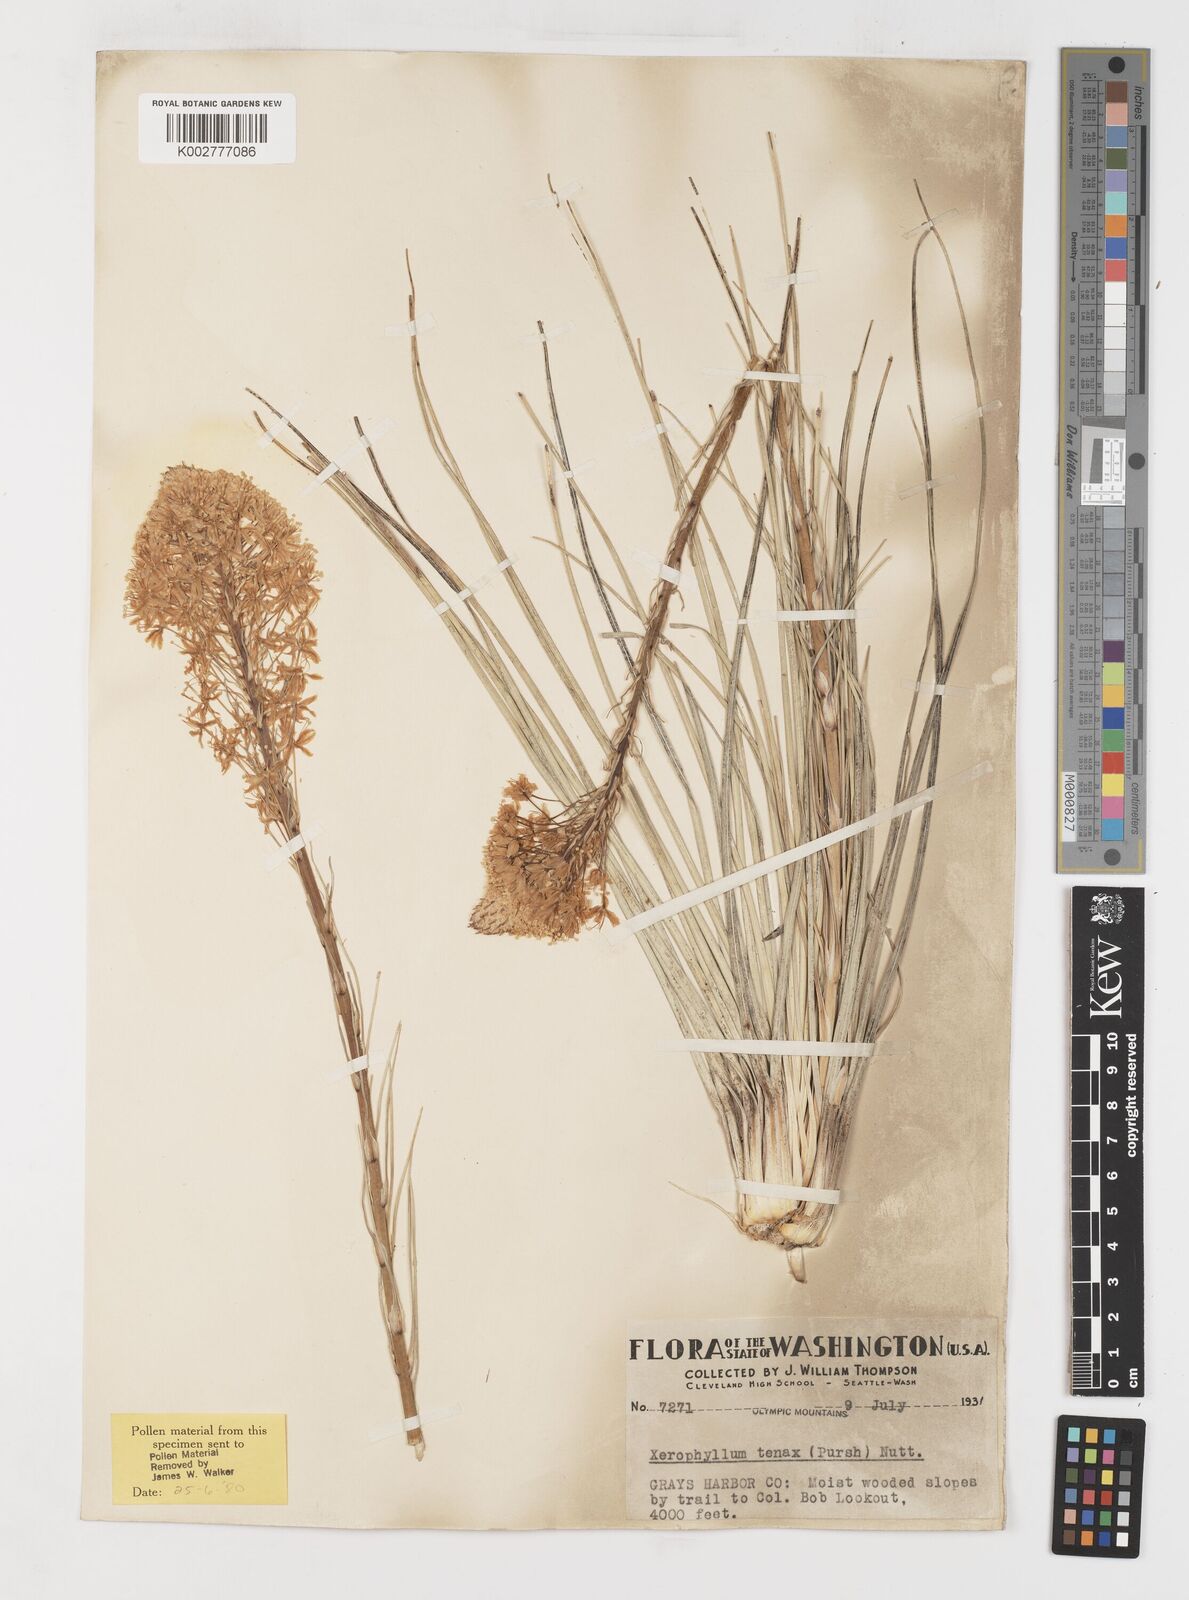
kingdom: Plantae
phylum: Tracheophyta
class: Liliopsida
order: Liliales
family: Melanthiaceae
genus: Xerophyllum
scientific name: Xerophyllum tenax
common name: Bear-grass
